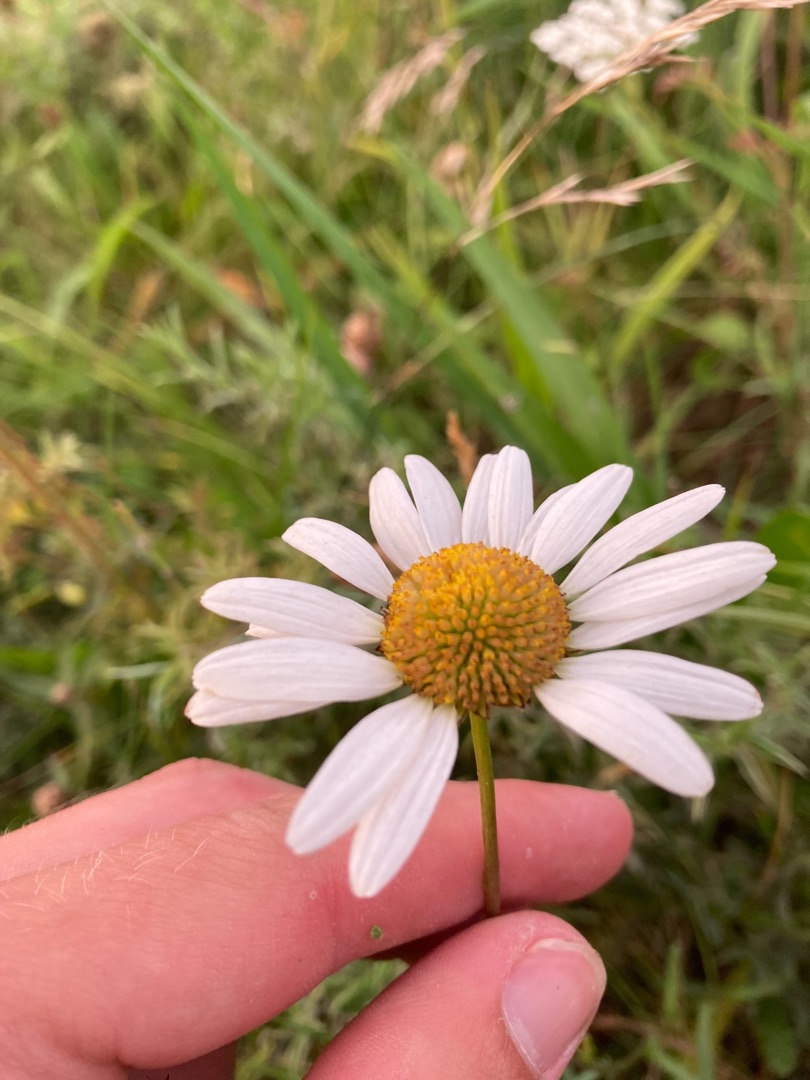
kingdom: Plantae
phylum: Tracheophyta
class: Magnoliopsida
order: Asterales
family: Asteraceae
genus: Leucanthemum
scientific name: Leucanthemum vulgare
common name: Hvid okseøje
